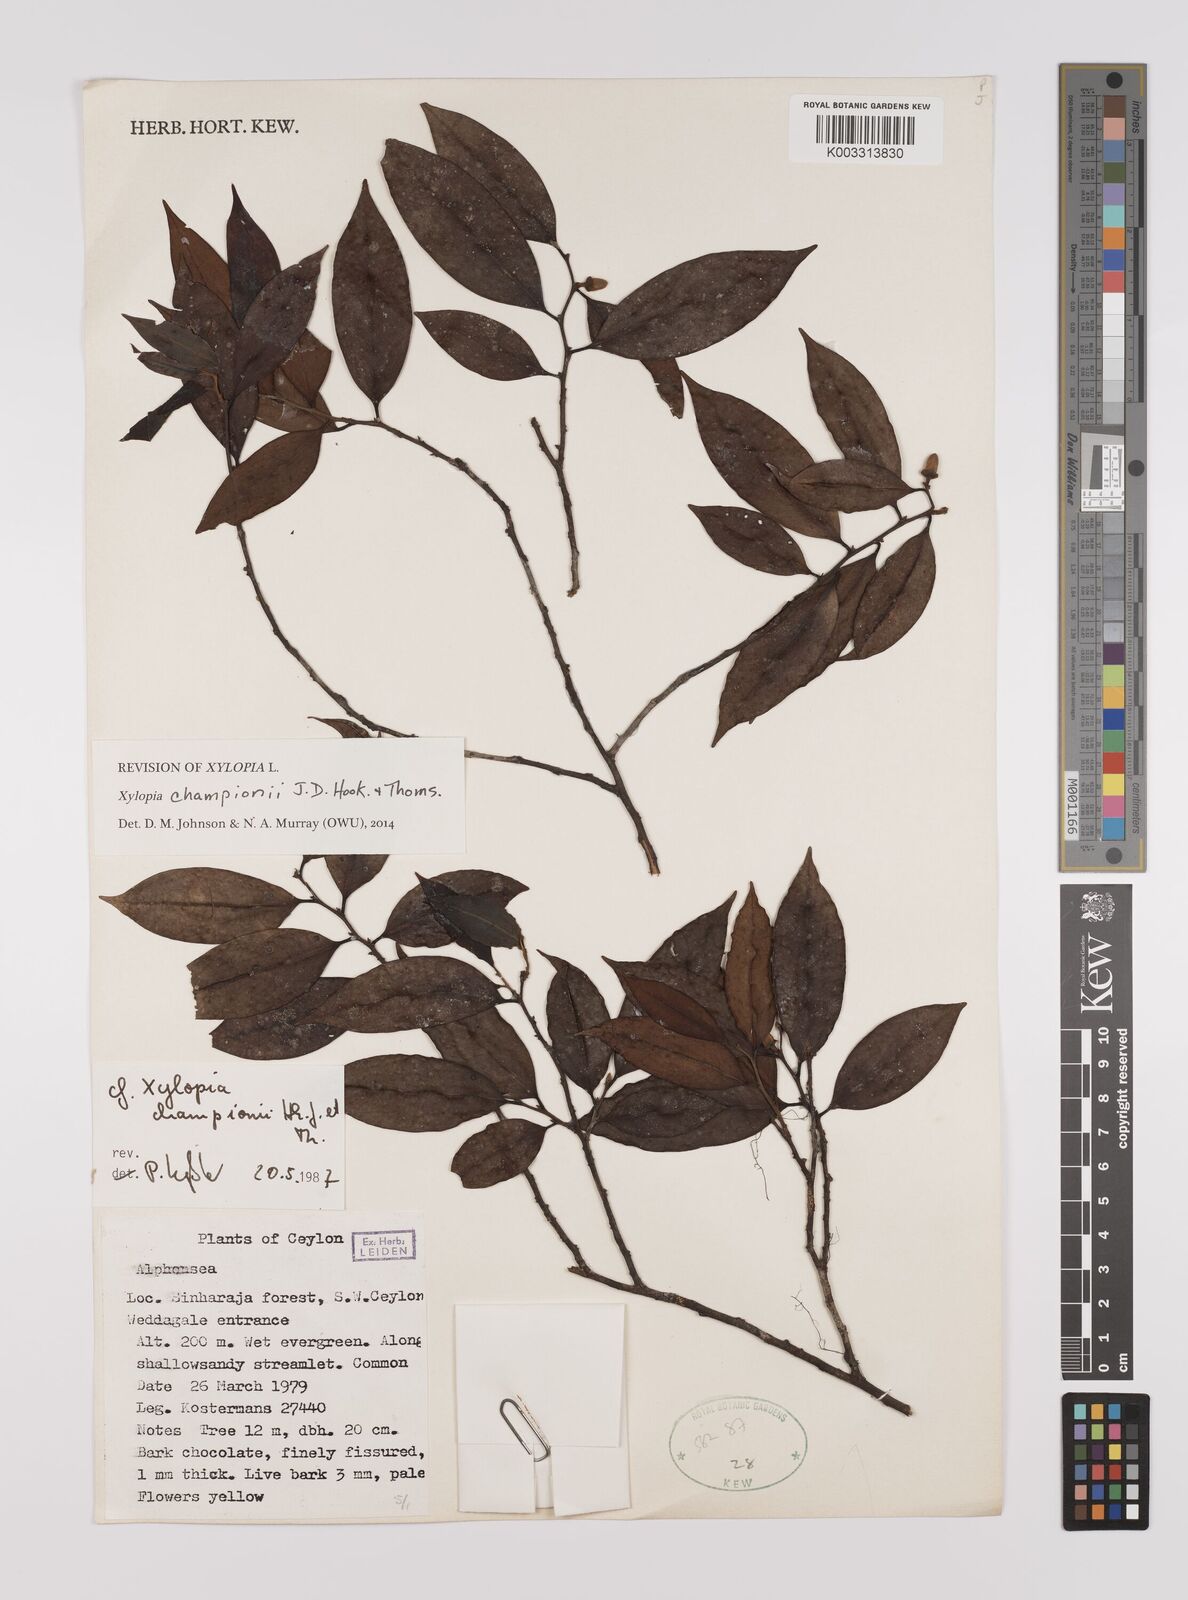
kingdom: Plantae
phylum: Tracheophyta
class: Magnoliopsida
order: Magnoliales
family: Annonaceae
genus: Xylopia
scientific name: Xylopia championii
